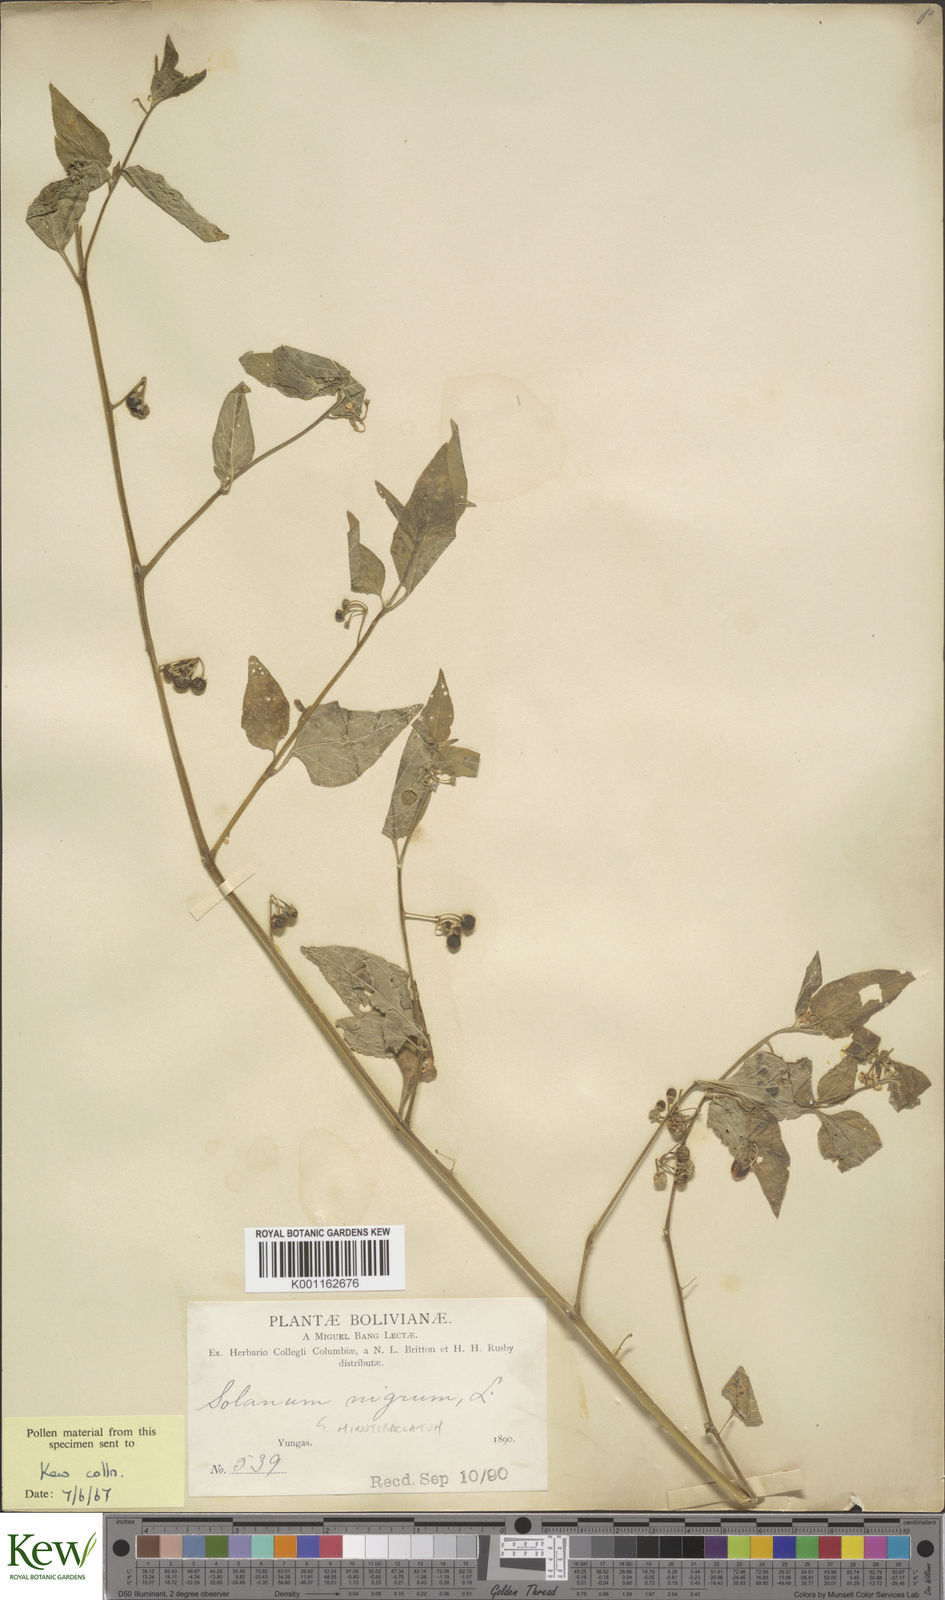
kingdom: Plantae
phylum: Tracheophyta
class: Magnoliopsida
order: Solanales
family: Solanaceae
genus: Solanum
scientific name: Solanum americanum
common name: American black nightshade
